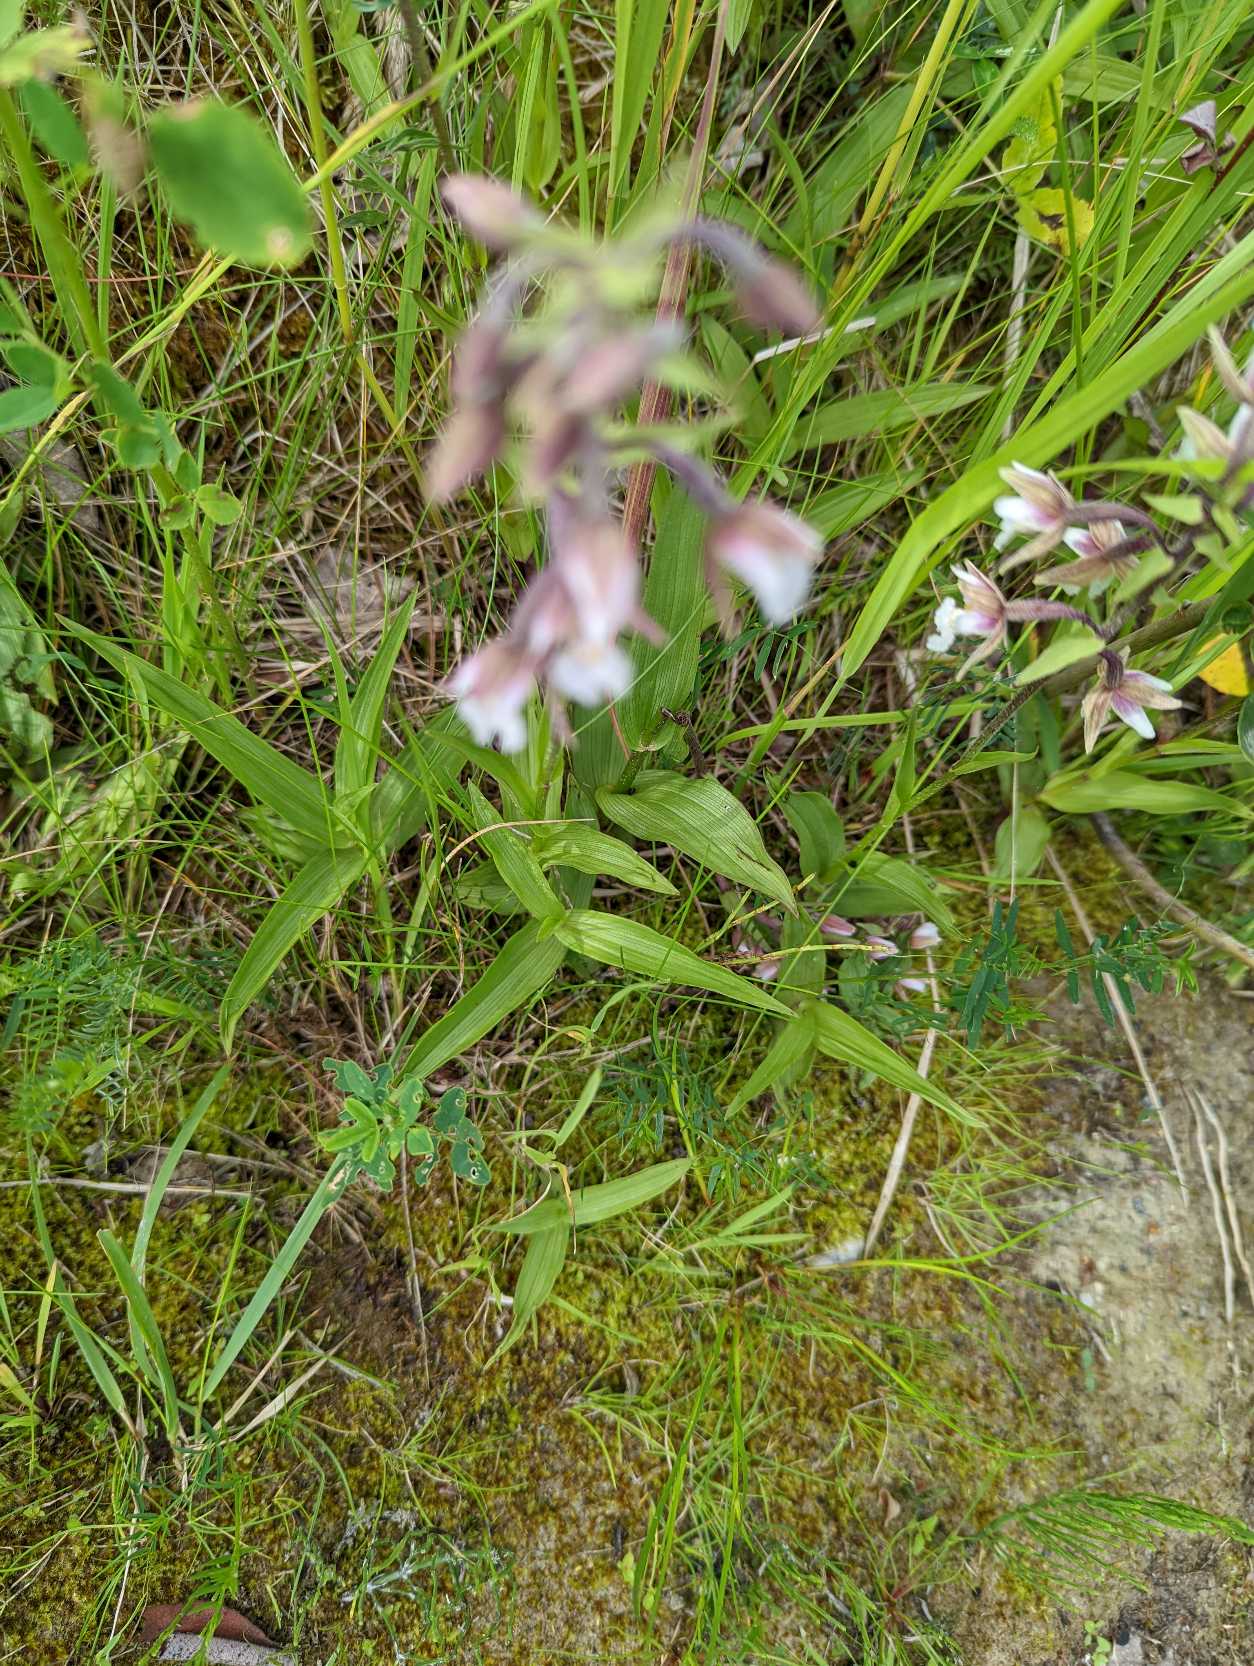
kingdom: Plantae
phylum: Tracheophyta
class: Liliopsida
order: Asparagales
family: Orchidaceae
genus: Epipactis
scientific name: Epipactis palustris
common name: Sump-hullæbe
